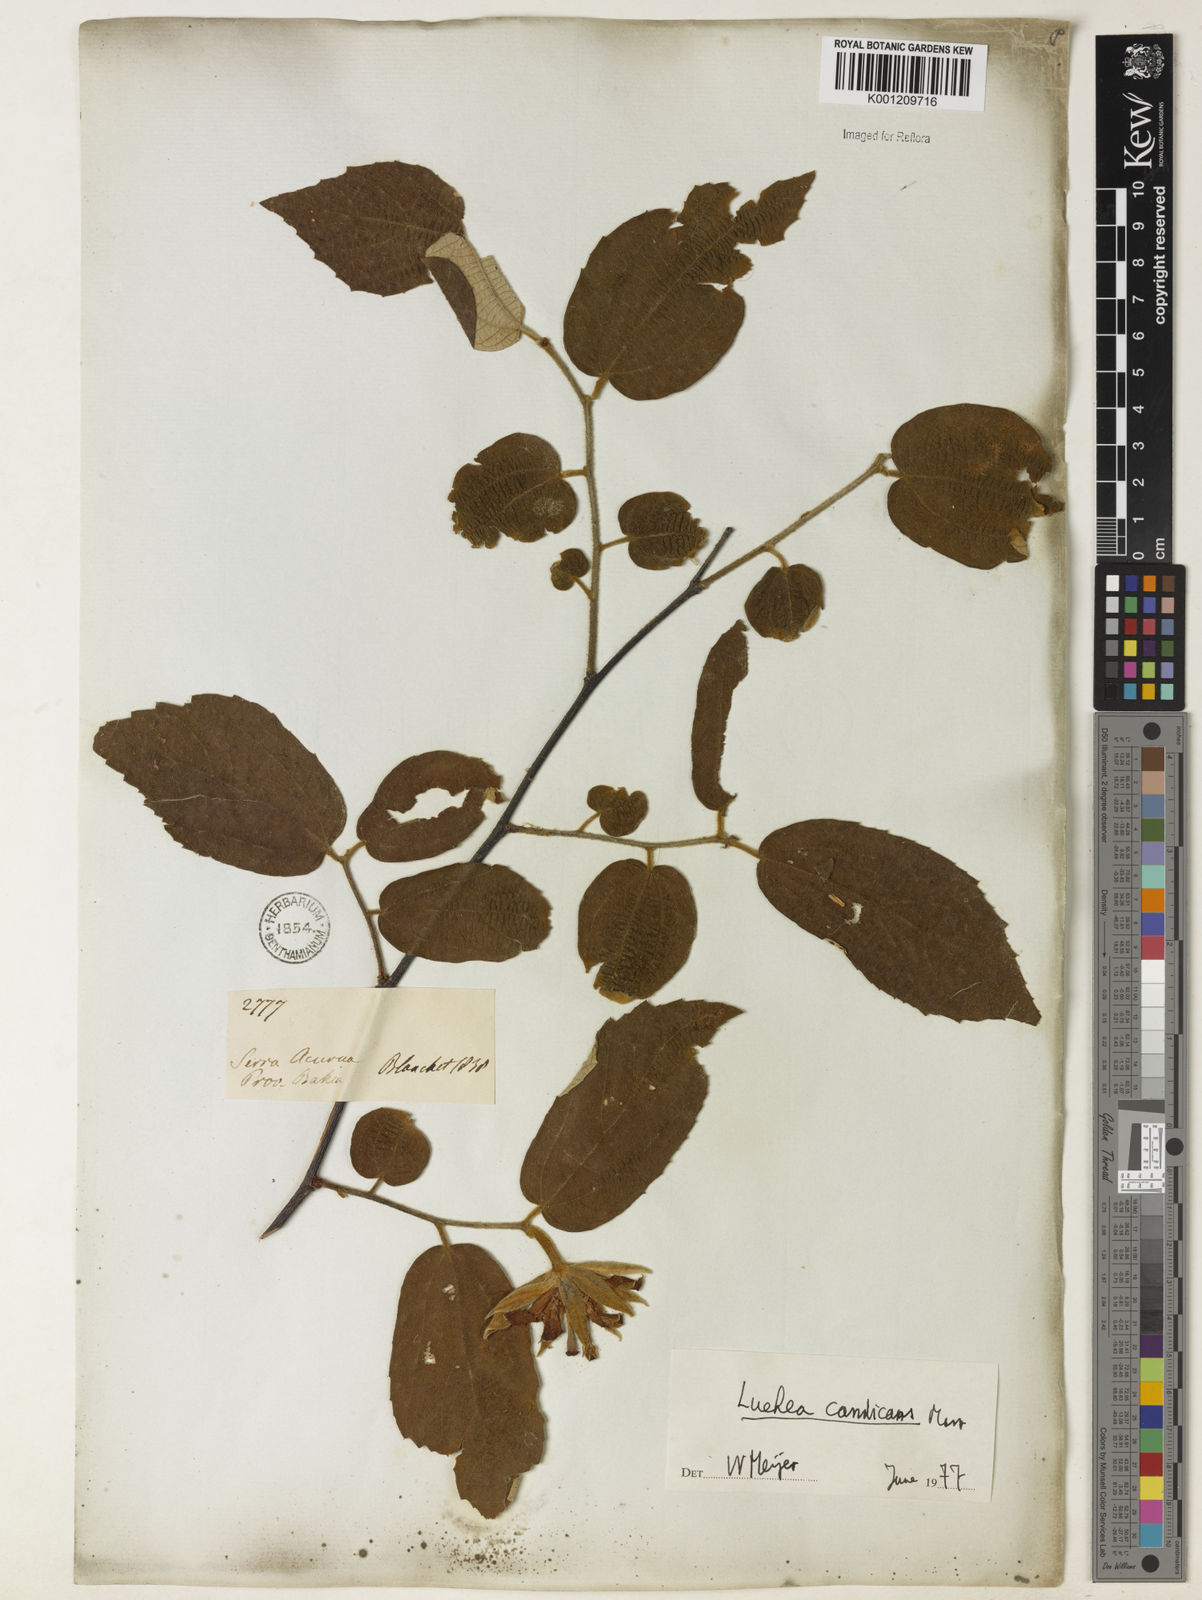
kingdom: Plantae
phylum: Tracheophyta
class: Magnoliopsida
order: Malvales
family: Malvaceae
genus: Luehea
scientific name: Luehea candicans
